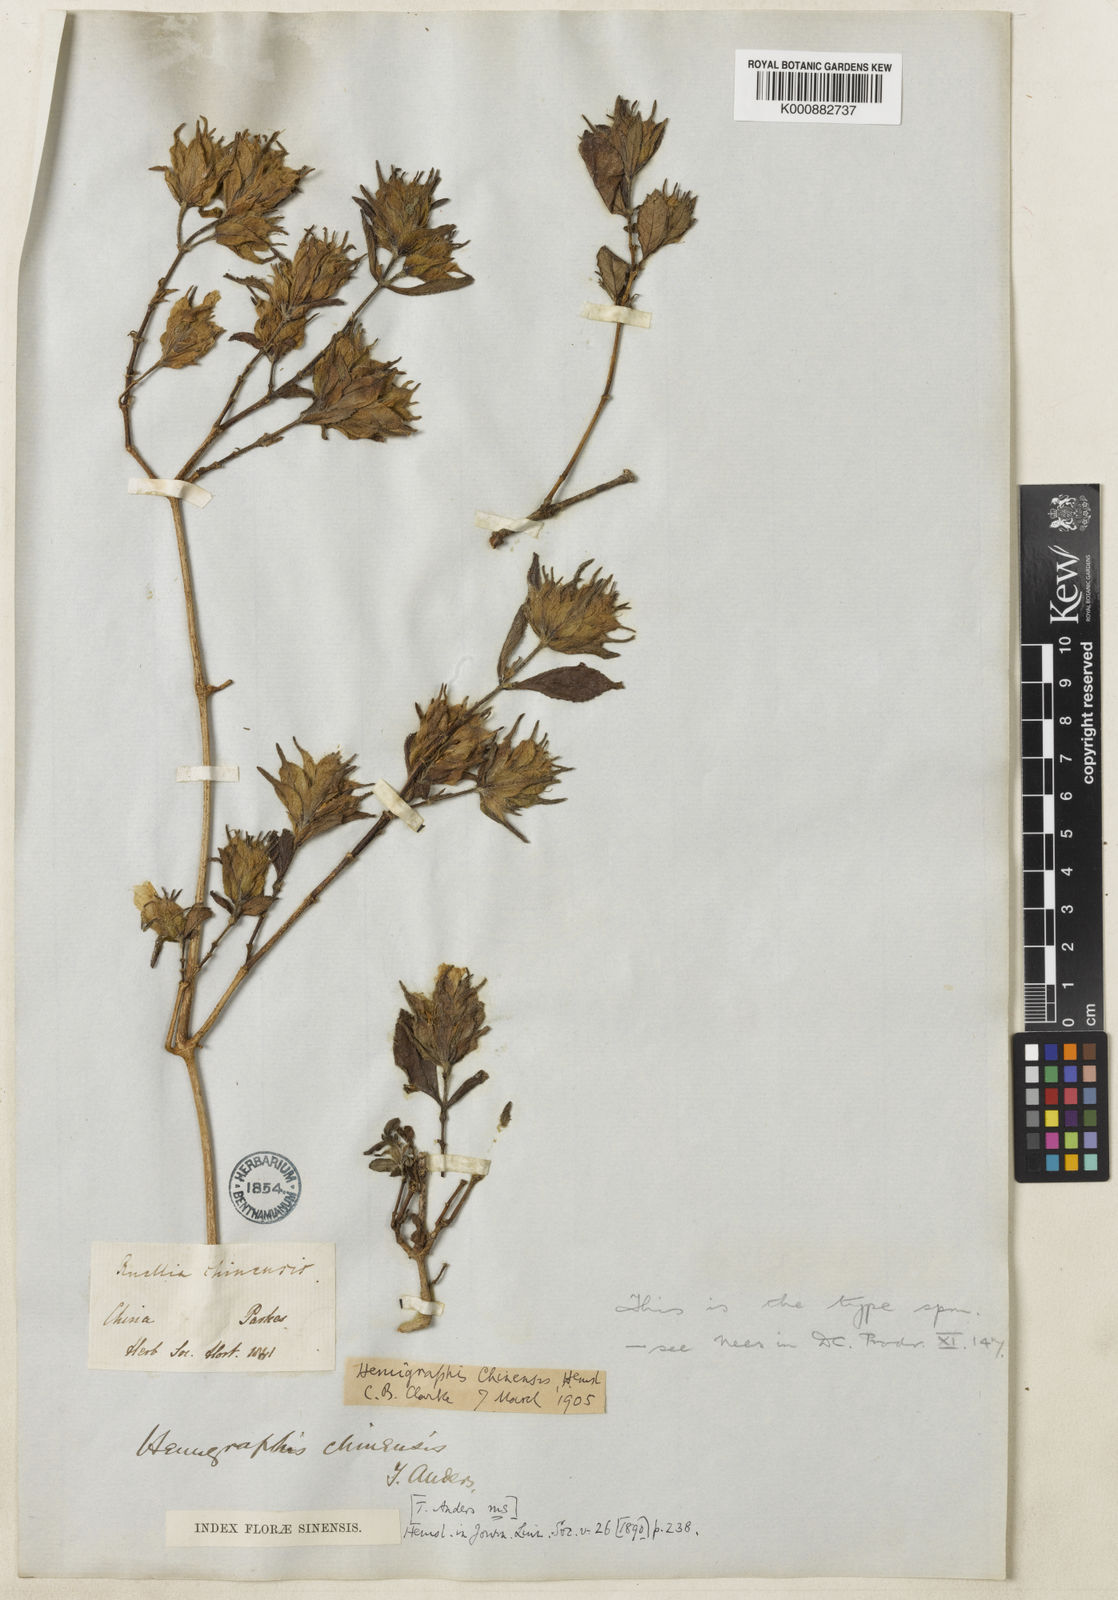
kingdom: Plantae
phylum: Tracheophyta
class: Magnoliopsida
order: Lamiales
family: Acanthaceae
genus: Strobilanthes
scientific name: Strobilanthes chinensis
